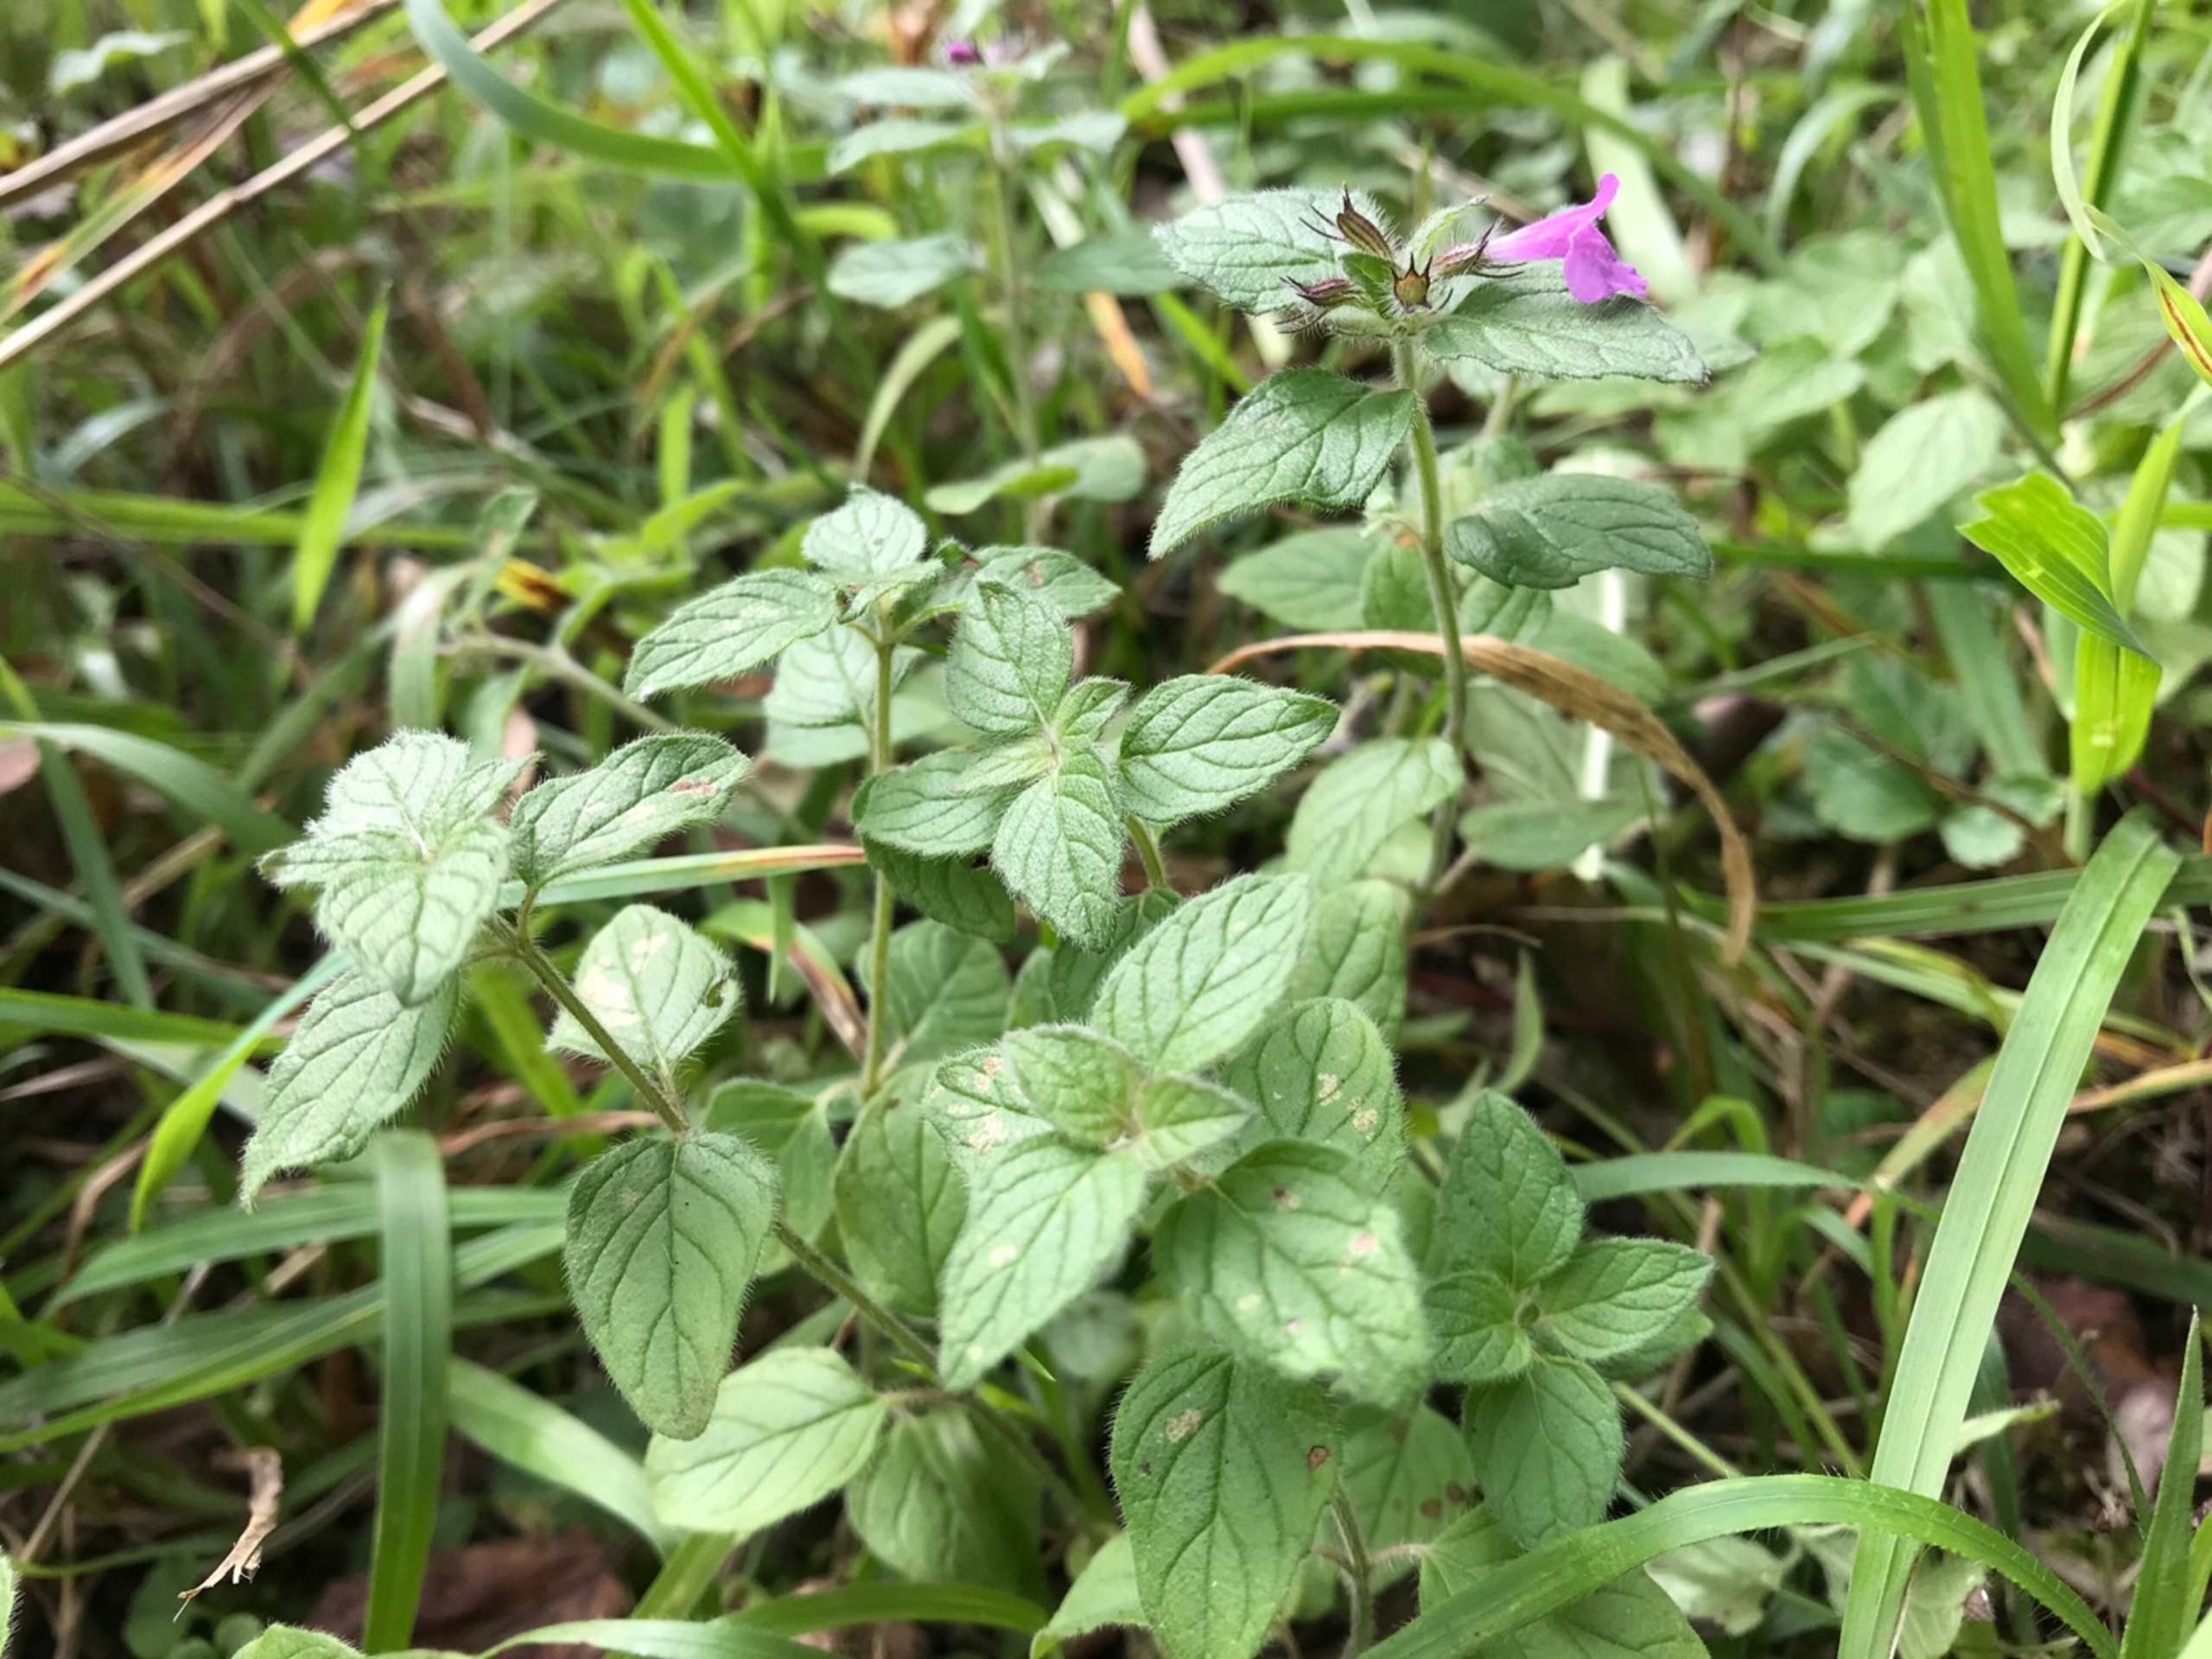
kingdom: Plantae
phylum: Tracheophyta
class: Magnoliopsida
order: Lamiales
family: Lamiaceae
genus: Clinopodium
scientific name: Clinopodium vulgare
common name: Kransbørste
